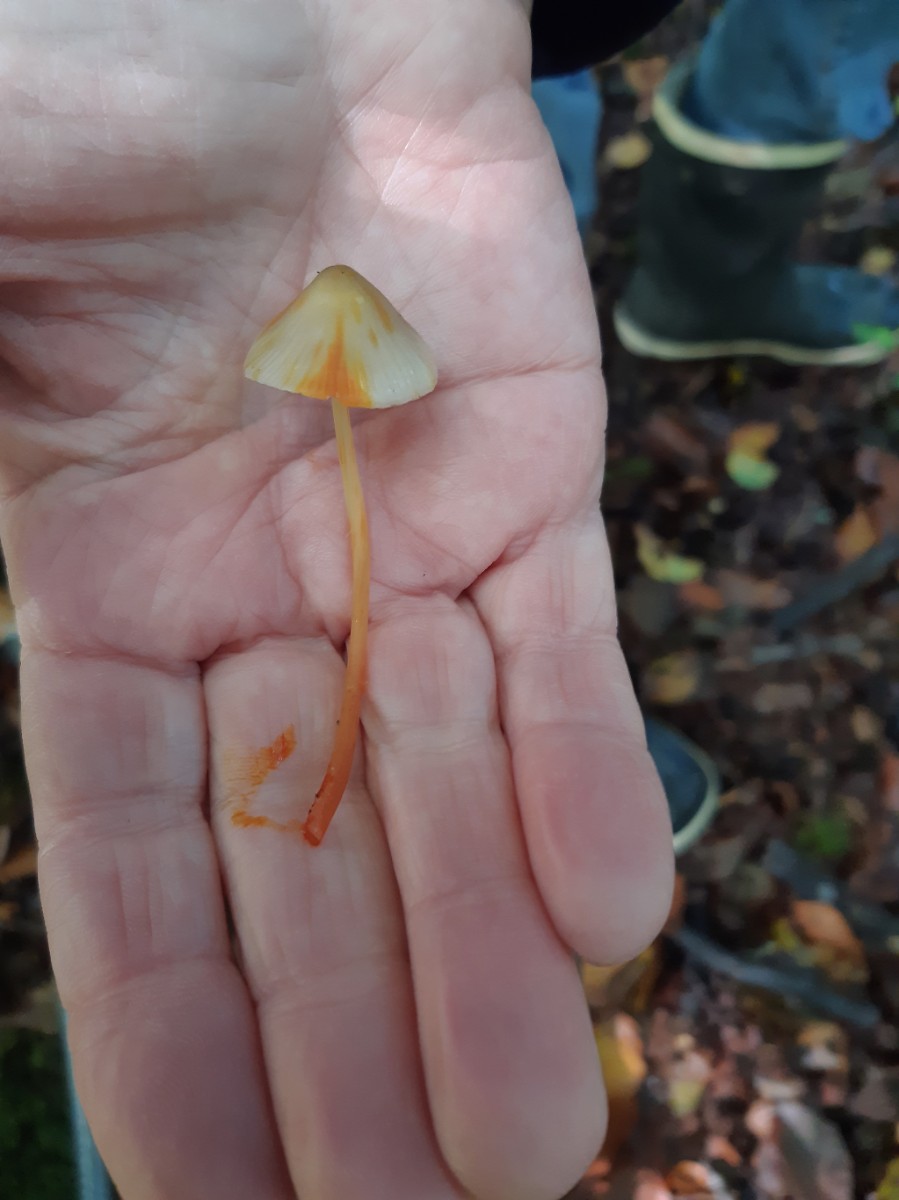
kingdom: Fungi
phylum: Basidiomycota
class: Agaricomycetes
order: Agaricales
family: Mycenaceae
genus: Mycena
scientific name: Mycena crocata
